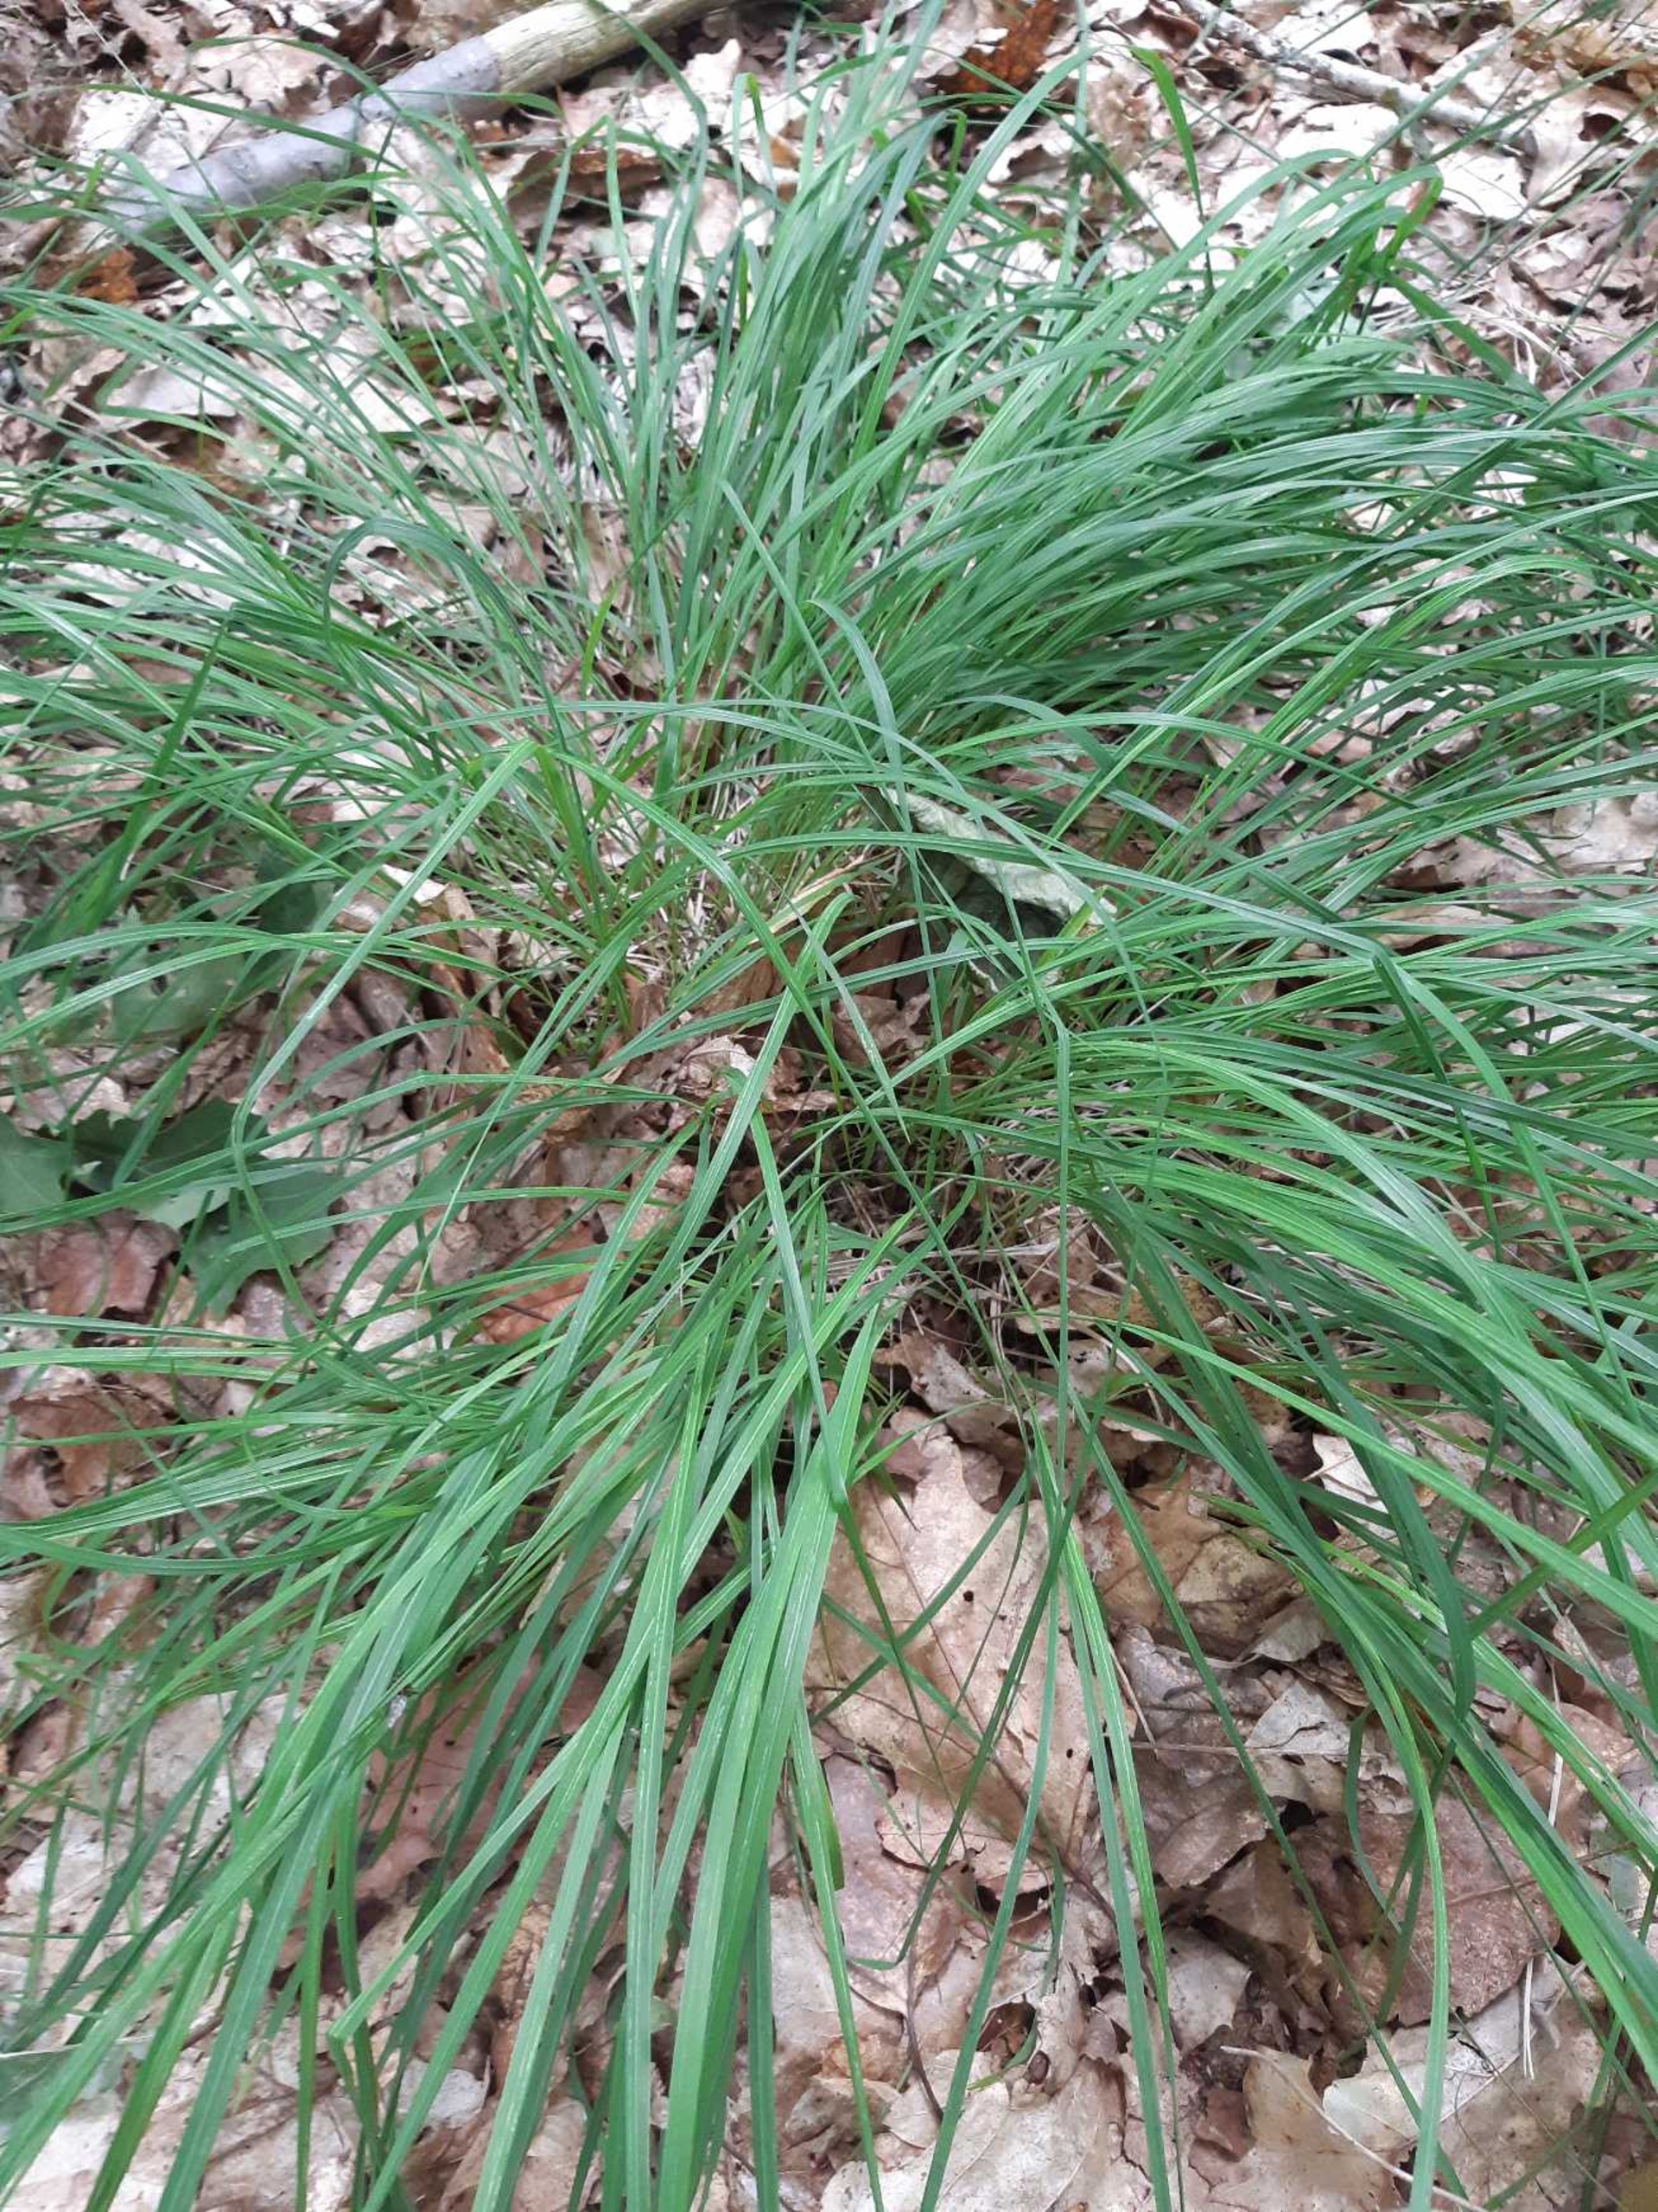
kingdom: Plantae
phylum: Tracheophyta
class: Liliopsida
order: Poales
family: Poaceae
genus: Molinia
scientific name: Molinia caerulea
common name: Blåtop
